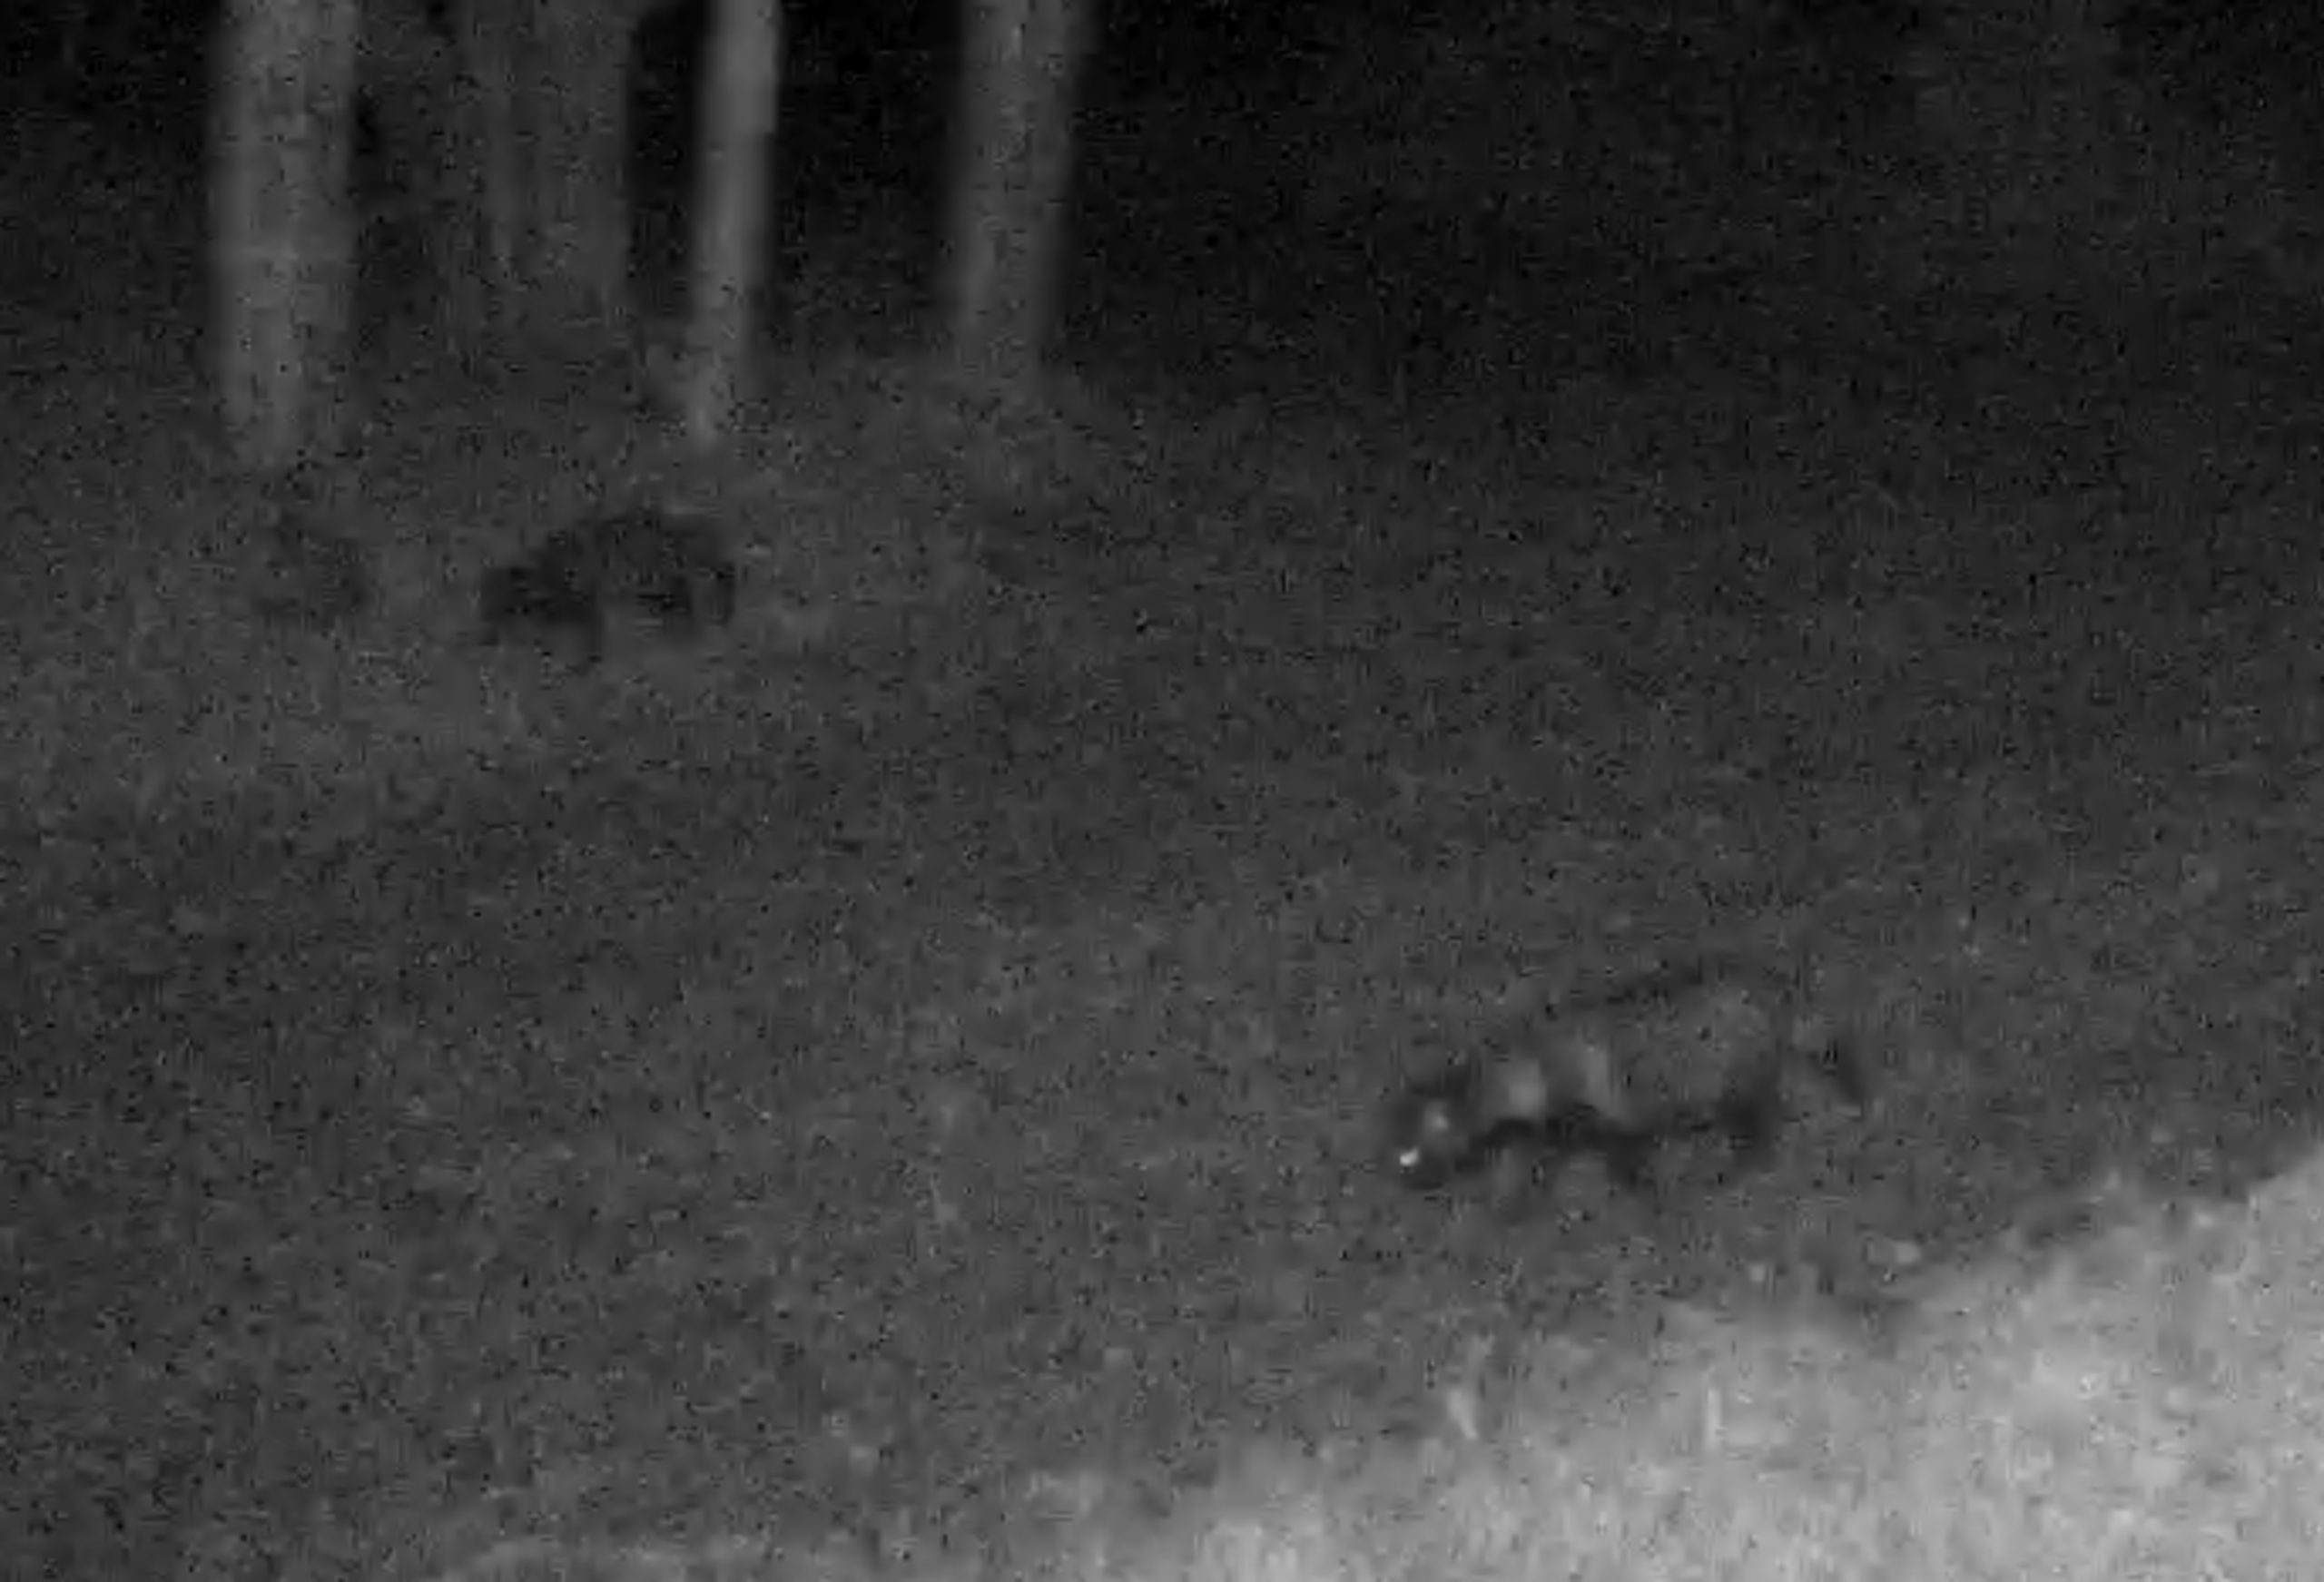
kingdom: Animalia
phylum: Chordata
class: Mammalia
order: Carnivora
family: Canidae
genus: Nyctereutes
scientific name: Nyctereutes procyonoides
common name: Mårhund
